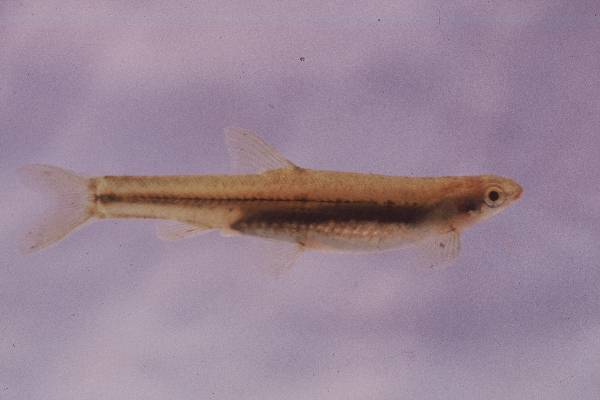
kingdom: Animalia
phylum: Chordata
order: Gonorynchiformes
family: Kneriidae
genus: Kneria
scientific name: Kneria auriculata
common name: Airbreathing shellear
